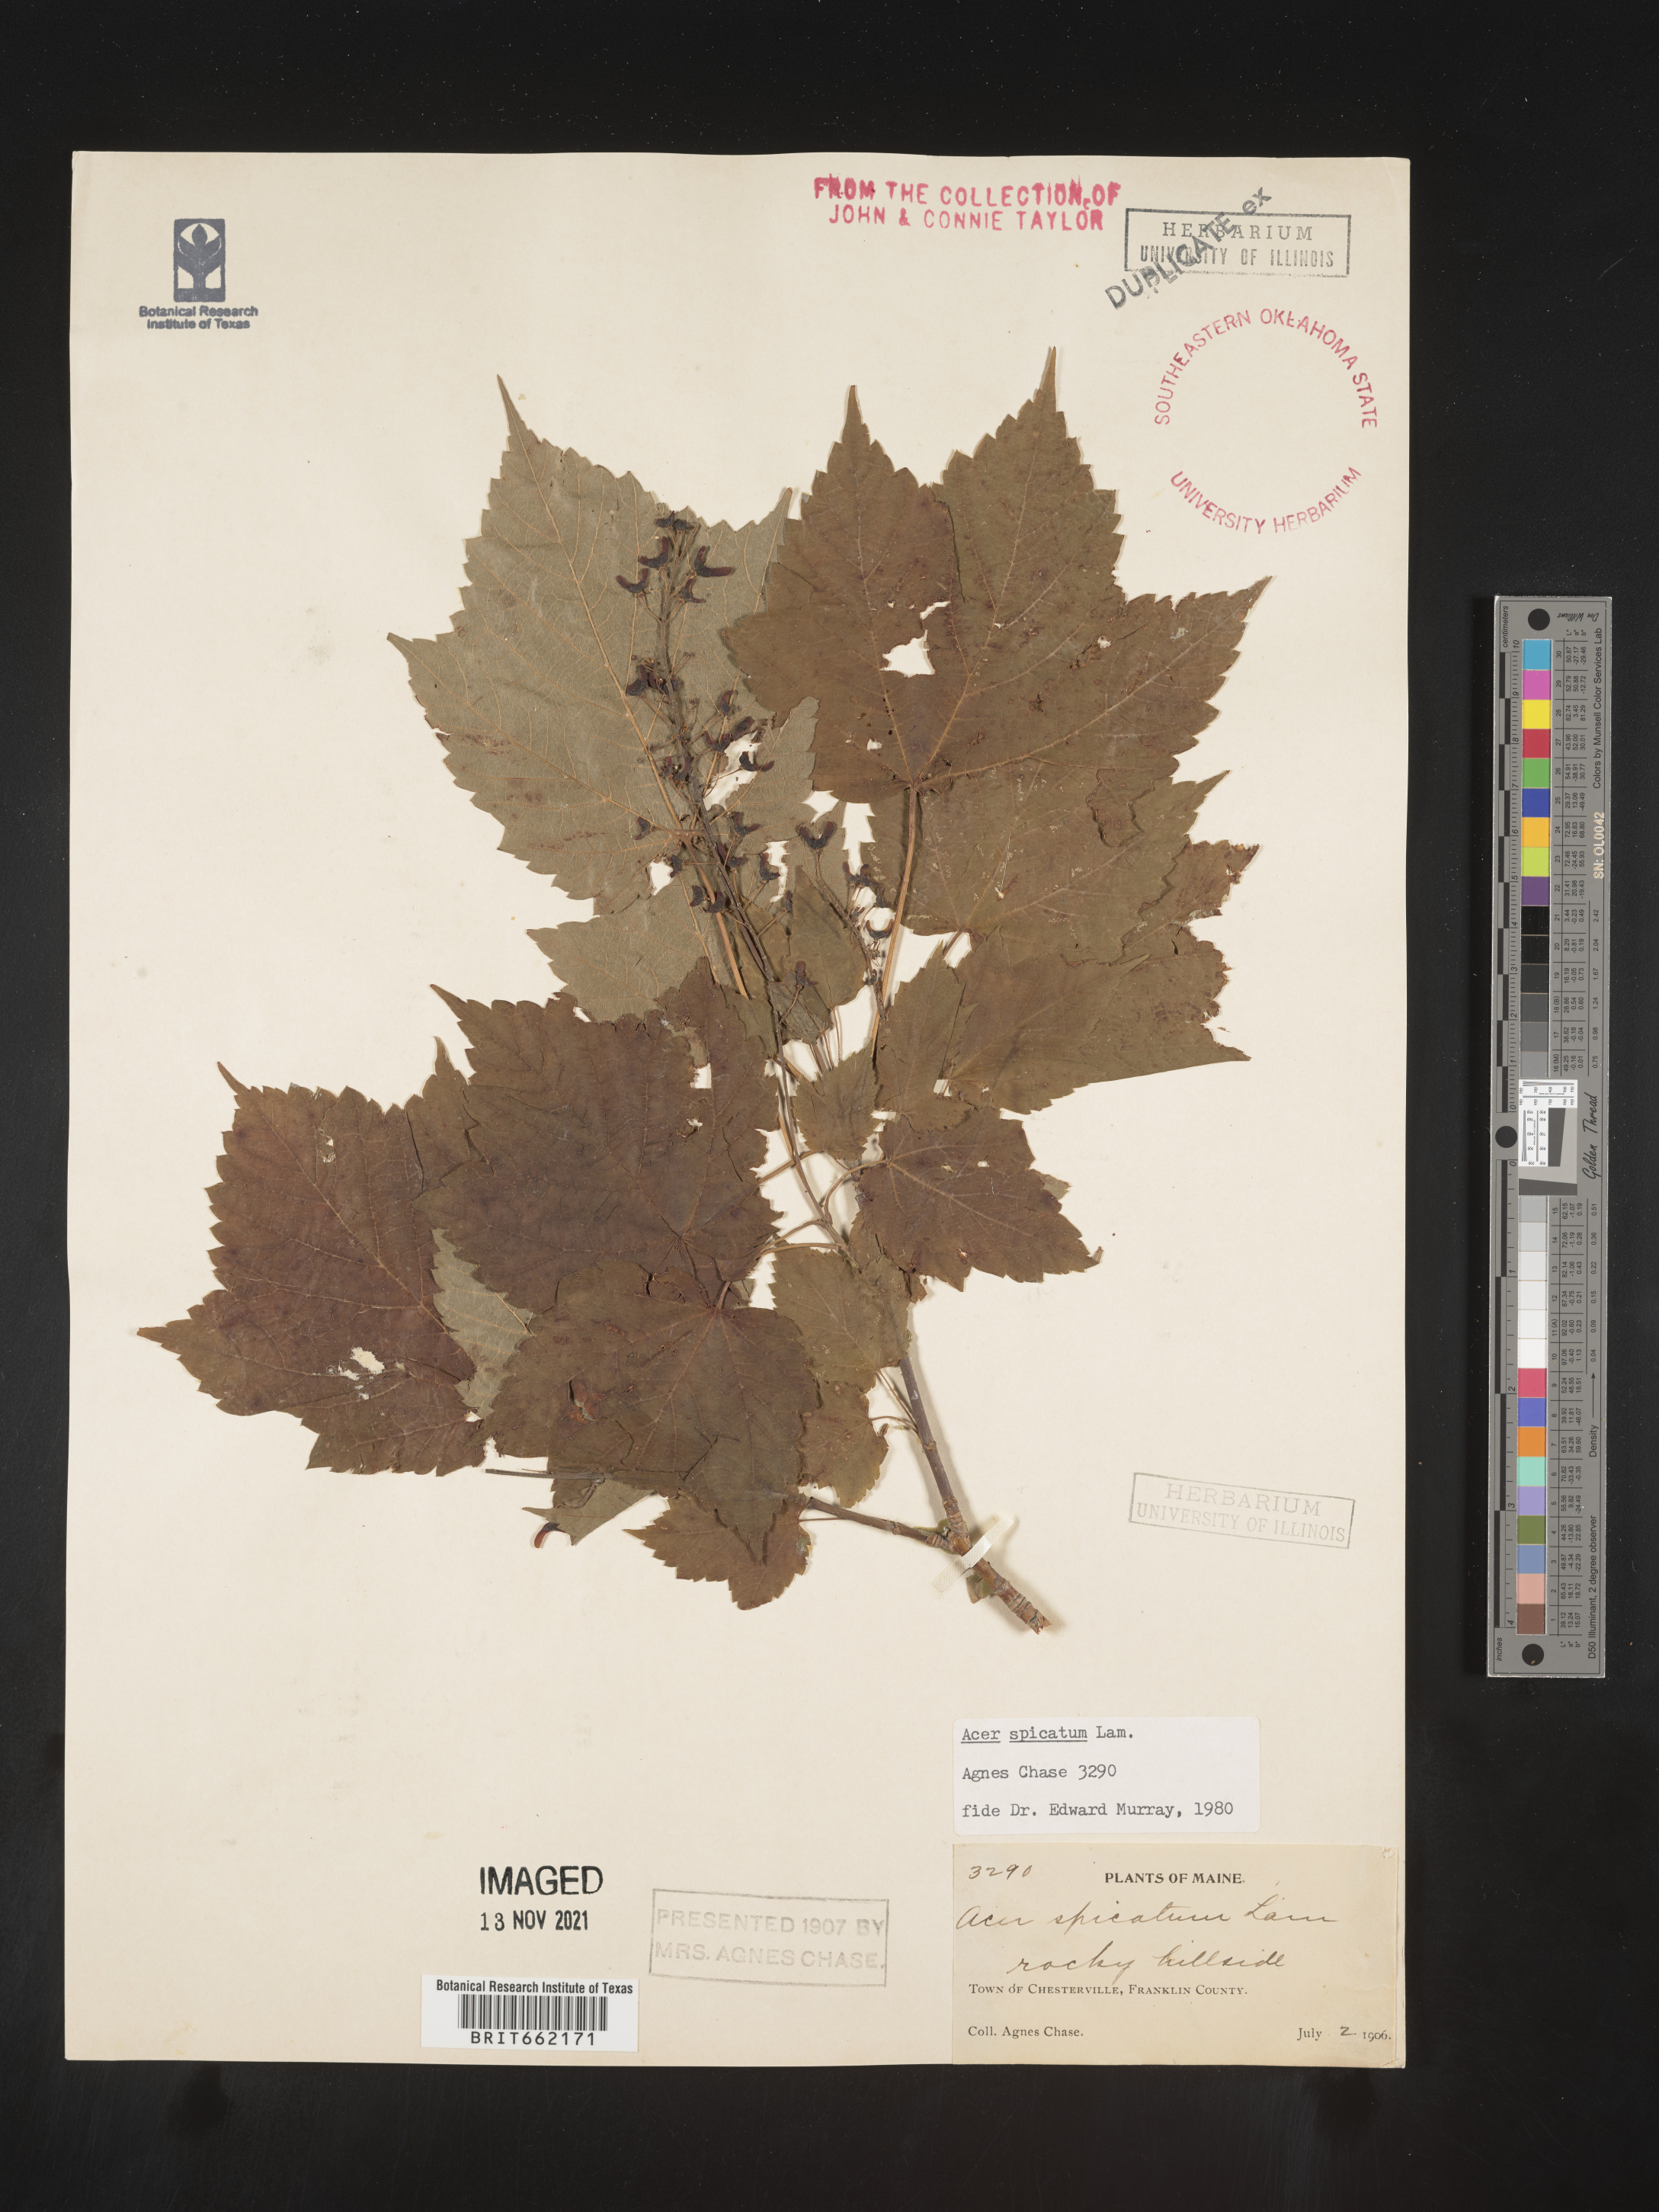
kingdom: Plantae
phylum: Tracheophyta
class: Magnoliopsida
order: Sapindales
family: Sapindaceae
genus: Acer
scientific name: Acer spicatum
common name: Mountain maple
